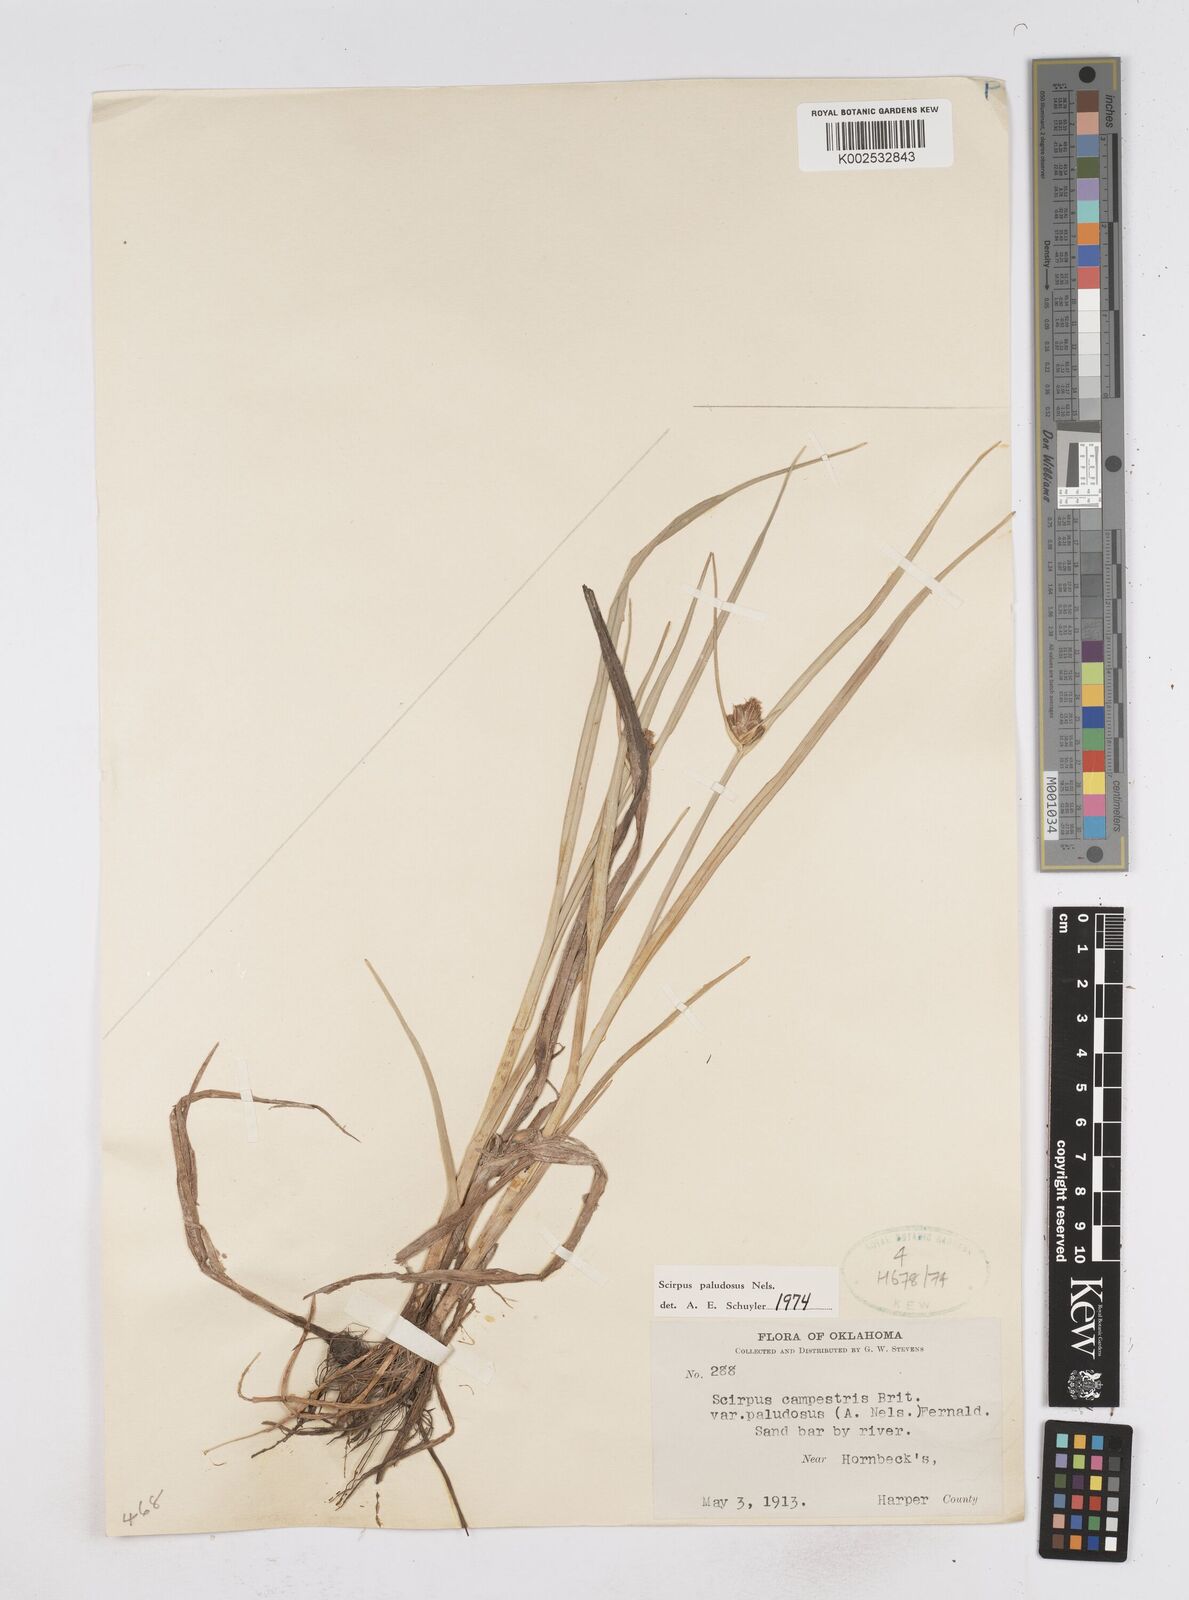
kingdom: Plantae
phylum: Tracheophyta
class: Liliopsida
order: Poales
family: Cyperaceae
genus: Bolboschoenus
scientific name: Bolboschoenus maritimus
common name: Sea club-rush
